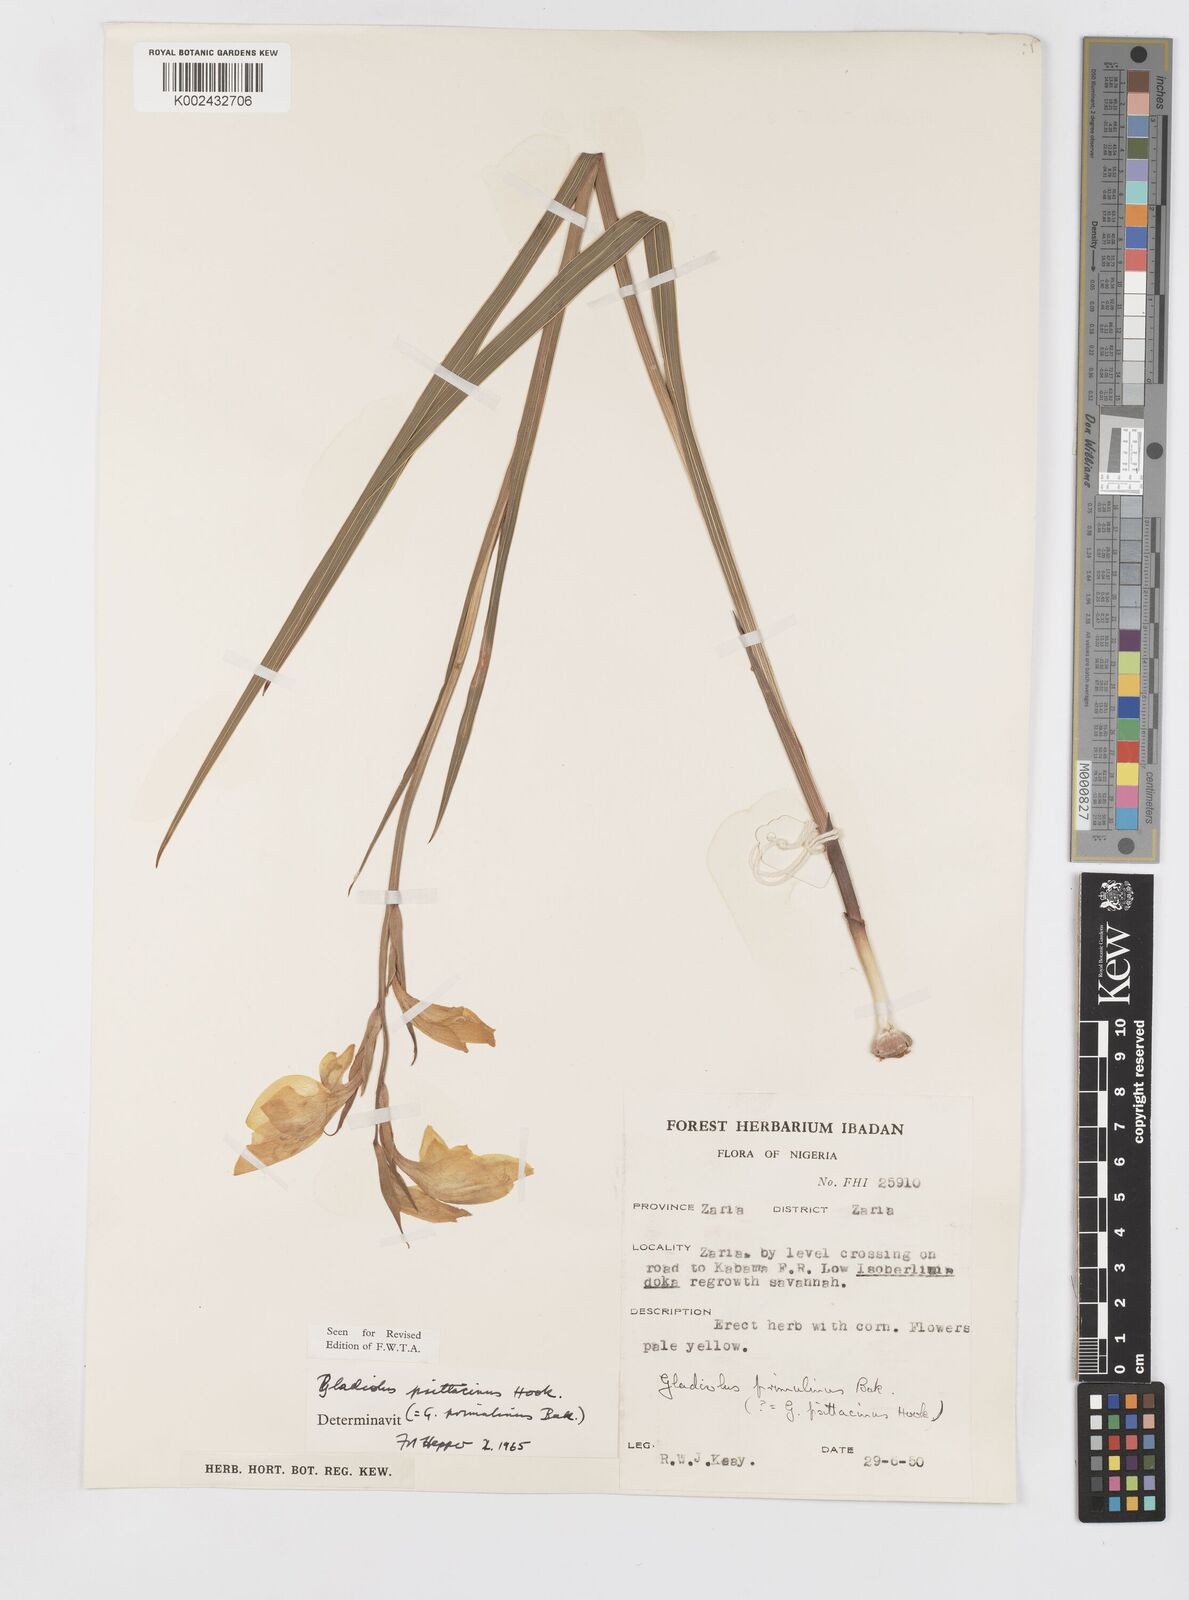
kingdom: Plantae
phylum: Tracheophyta
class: Liliopsida
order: Asparagales
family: Iridaceae
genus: Gladiolus
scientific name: Gladiolus dalenii
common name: Cornflag
